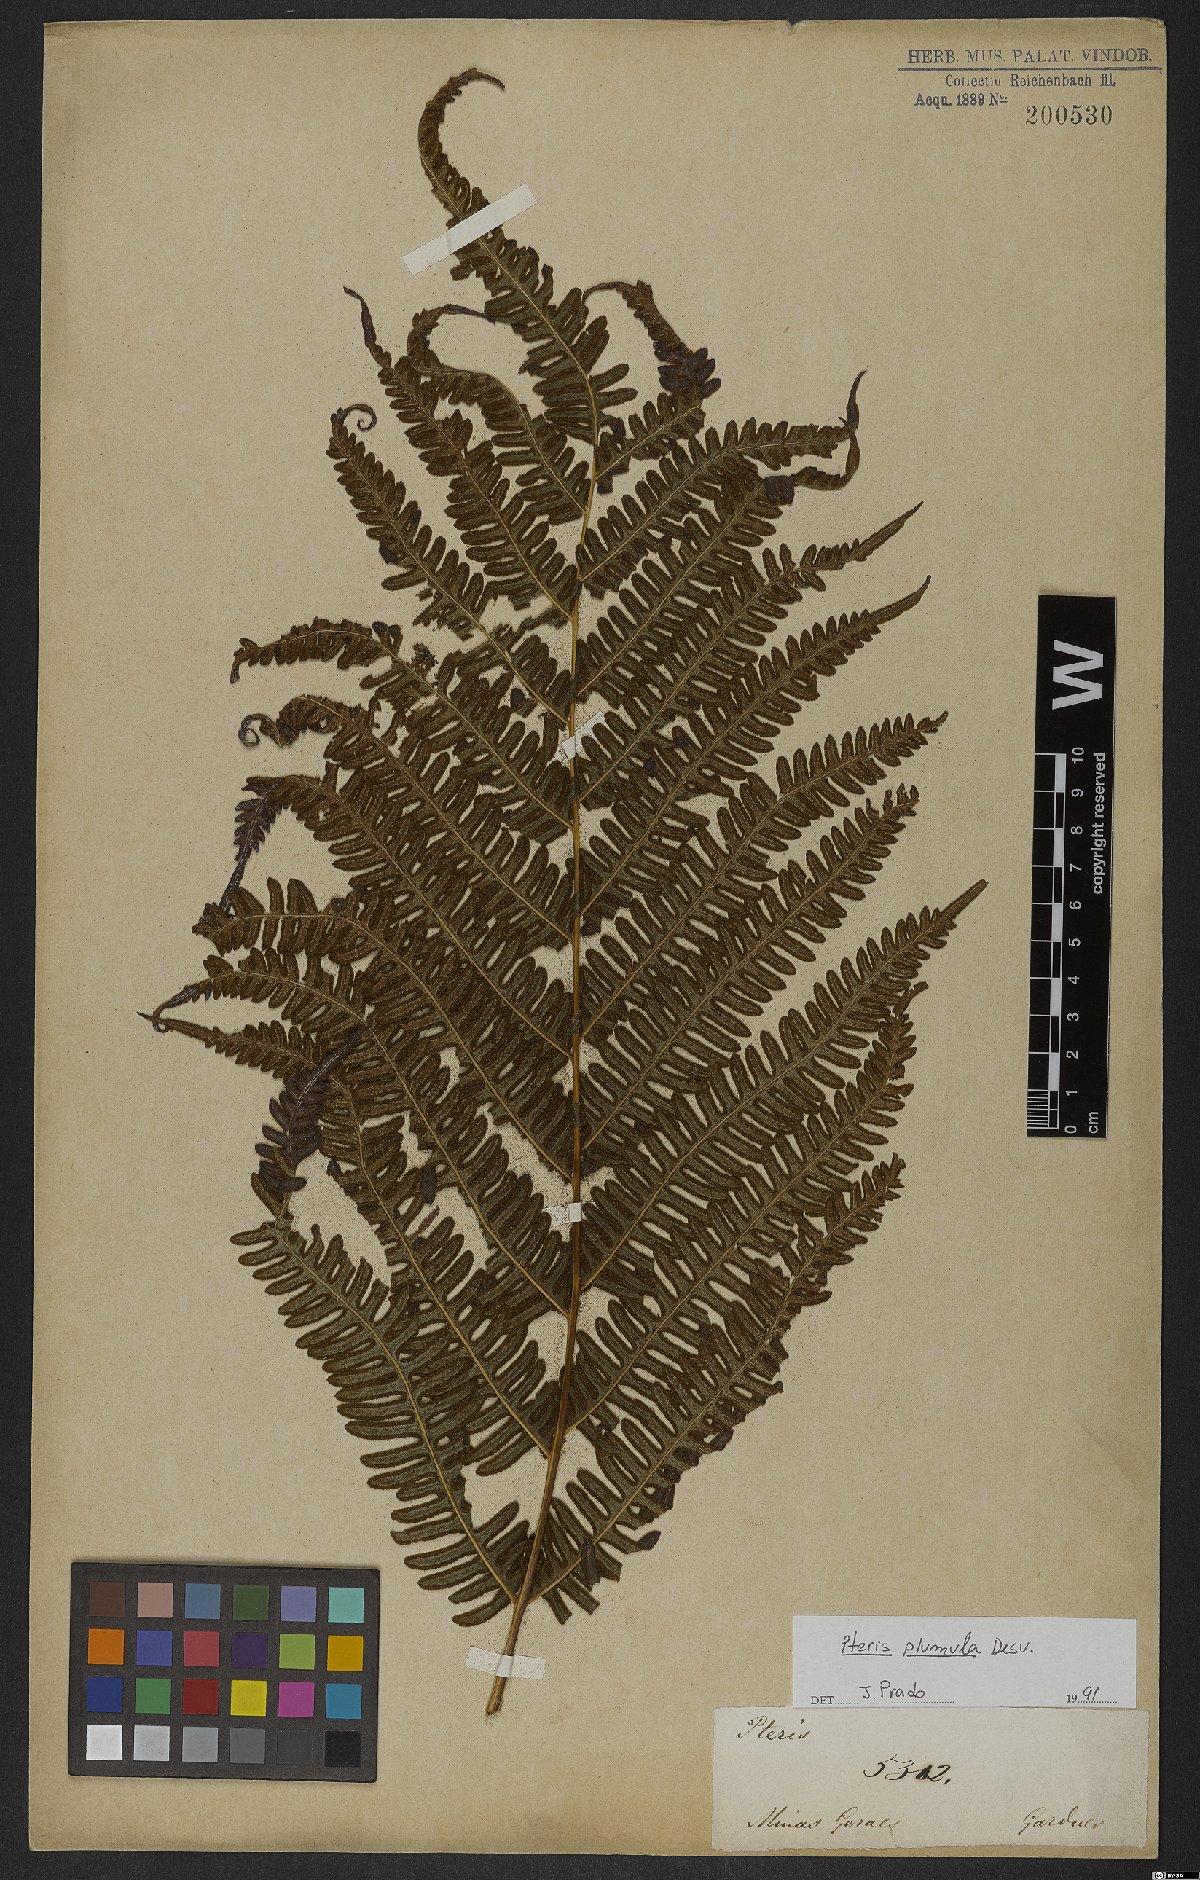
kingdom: Plantae
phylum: Tracheophyta
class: Polypodiopsida
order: Polypodiales
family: Pteridaceae
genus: Pteris
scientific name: Pteris quadriaurita
